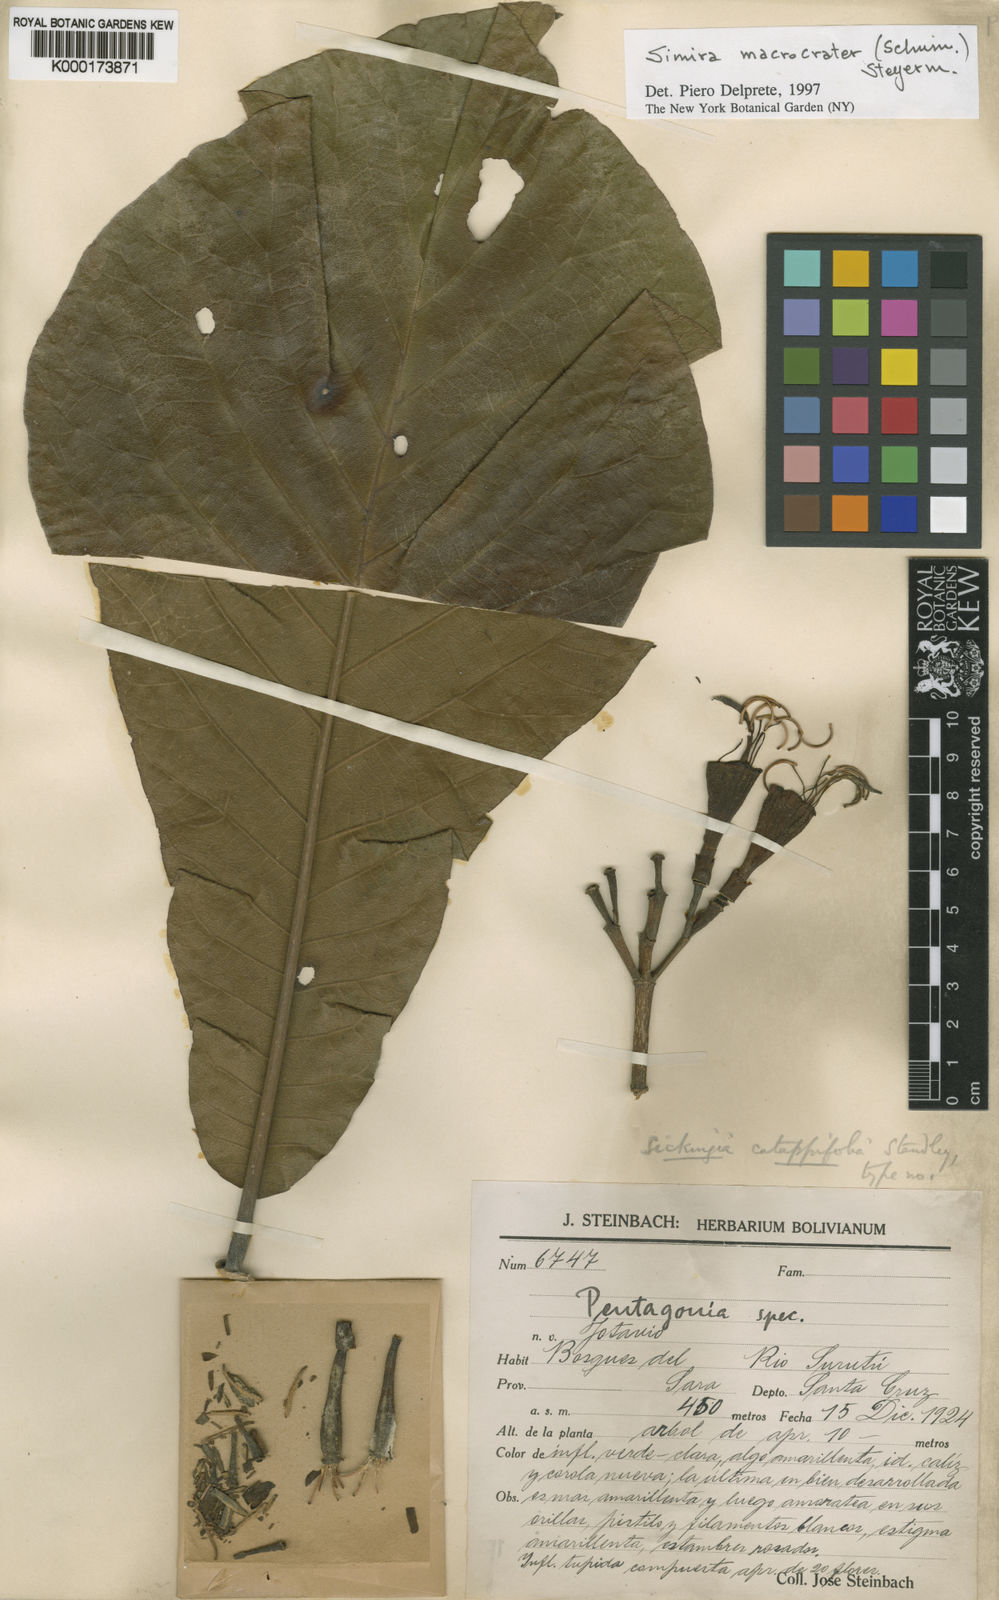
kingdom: Plantae
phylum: Tracheophyta
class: Magnoliopsida
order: Gentianales
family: Rubiaceae
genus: Simira
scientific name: Simira macrocrater
